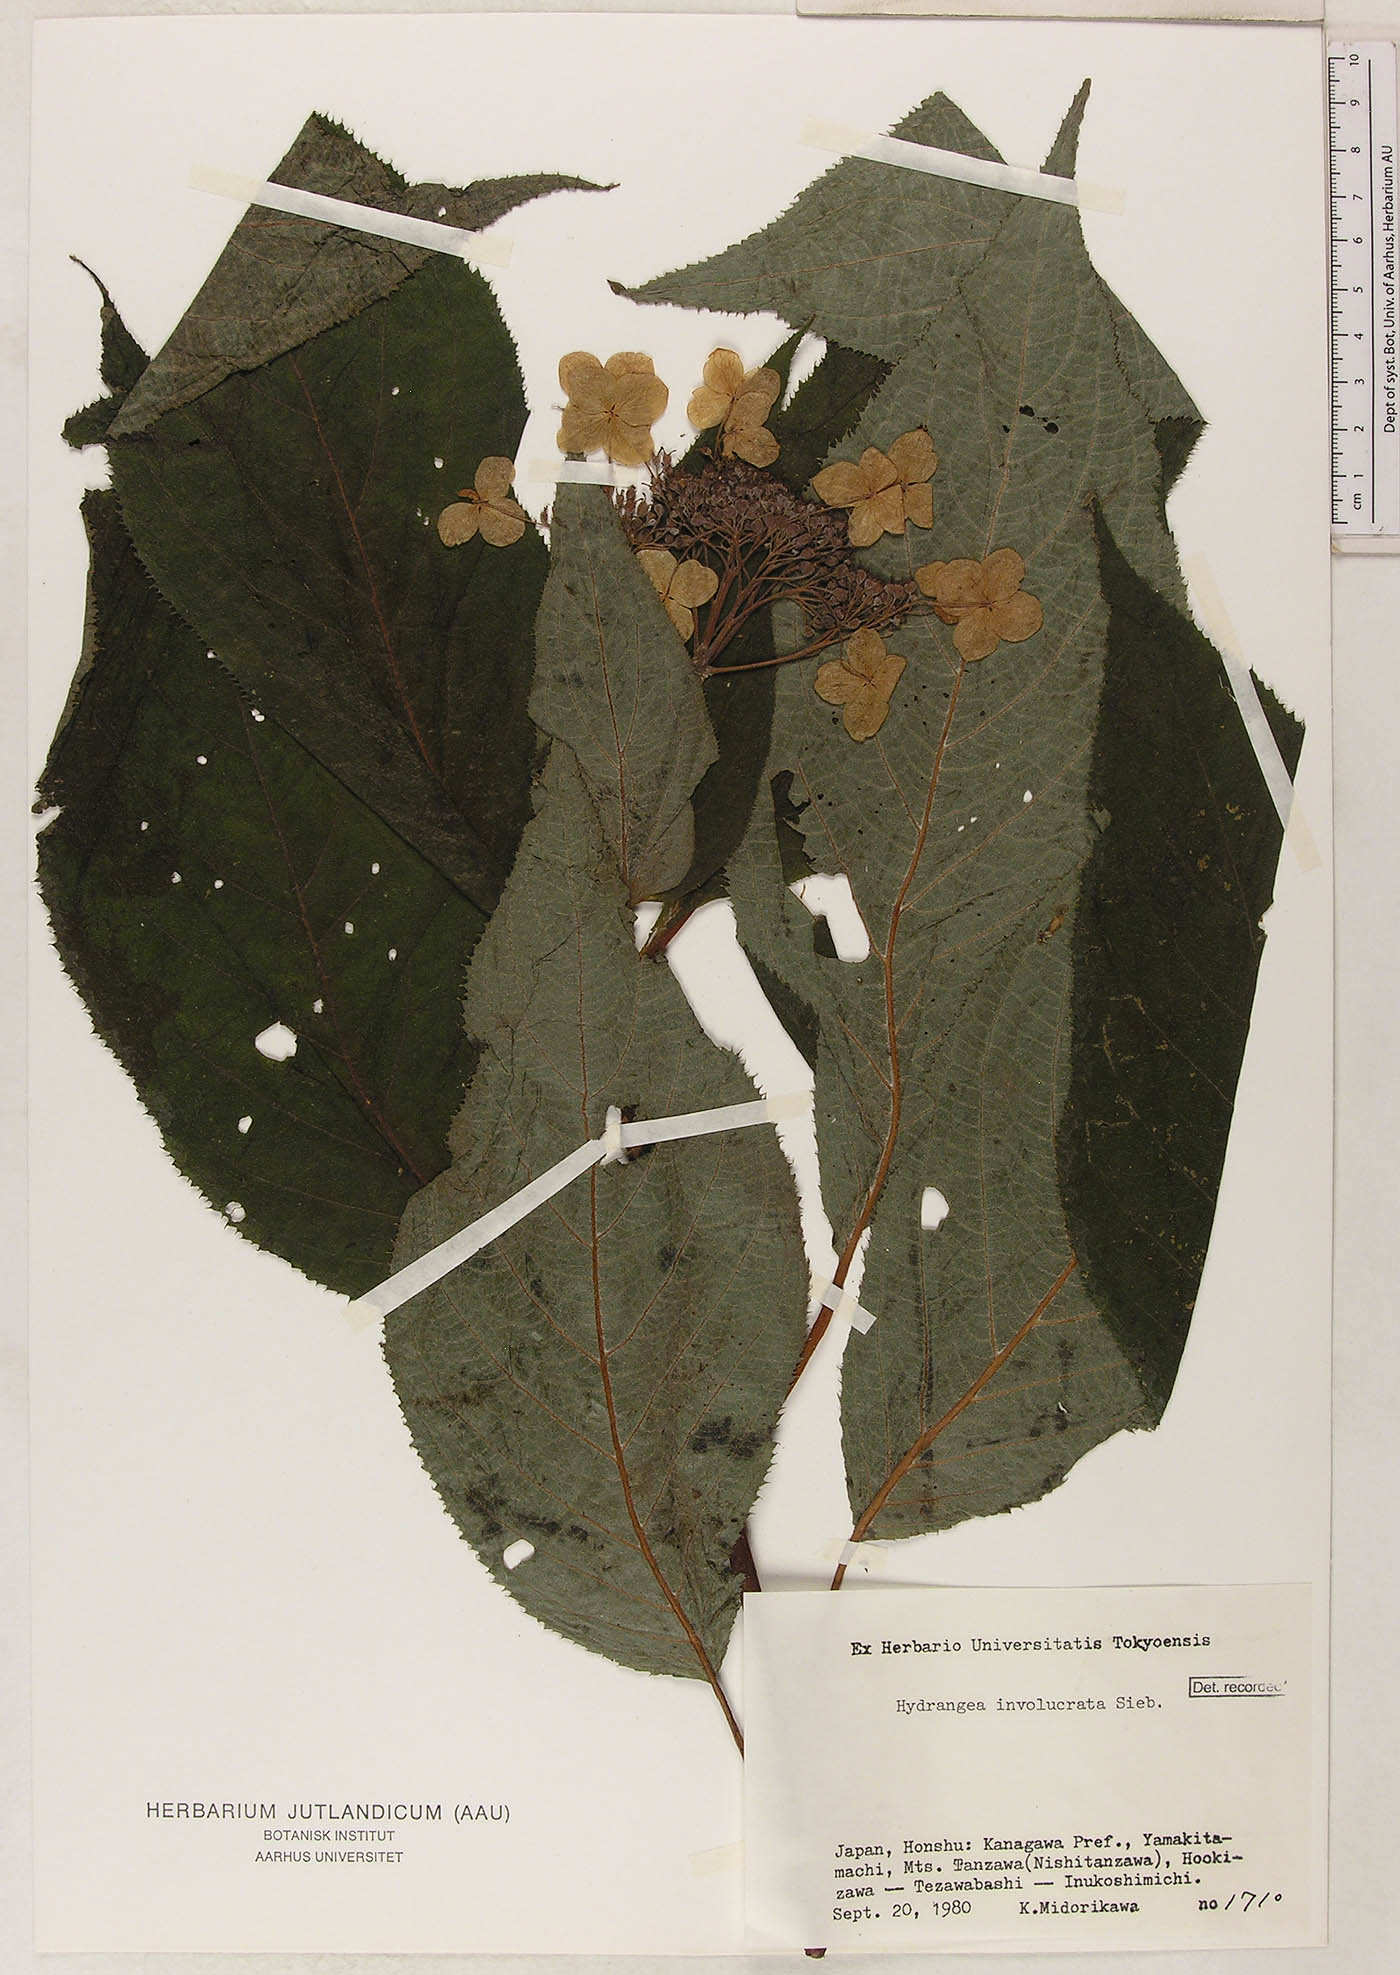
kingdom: Plantae
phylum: Tracheophyta
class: Magnoliopsida
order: Cornales
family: Hydrangeaceae
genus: Hydrangea
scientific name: Hydrangea involucrata
